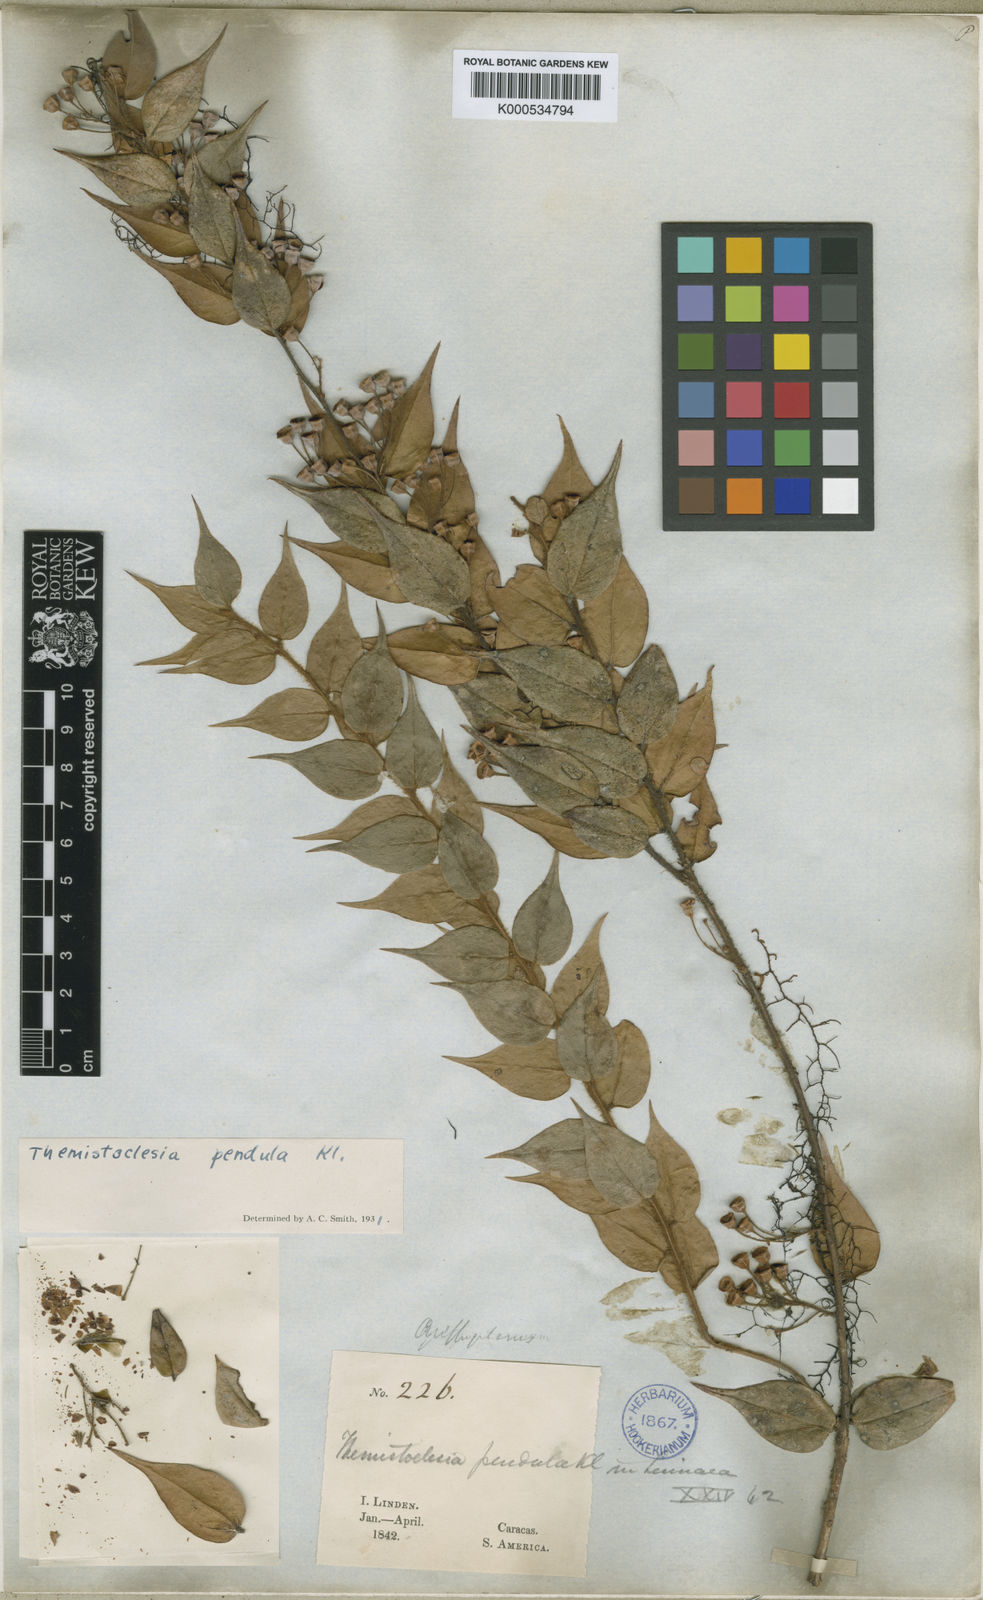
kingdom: Plantae
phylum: Tracheophyta
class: Magnoliopsida
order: Ericales
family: Ericaceae
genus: Themistoclesia
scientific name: Themistoclesia dependens
